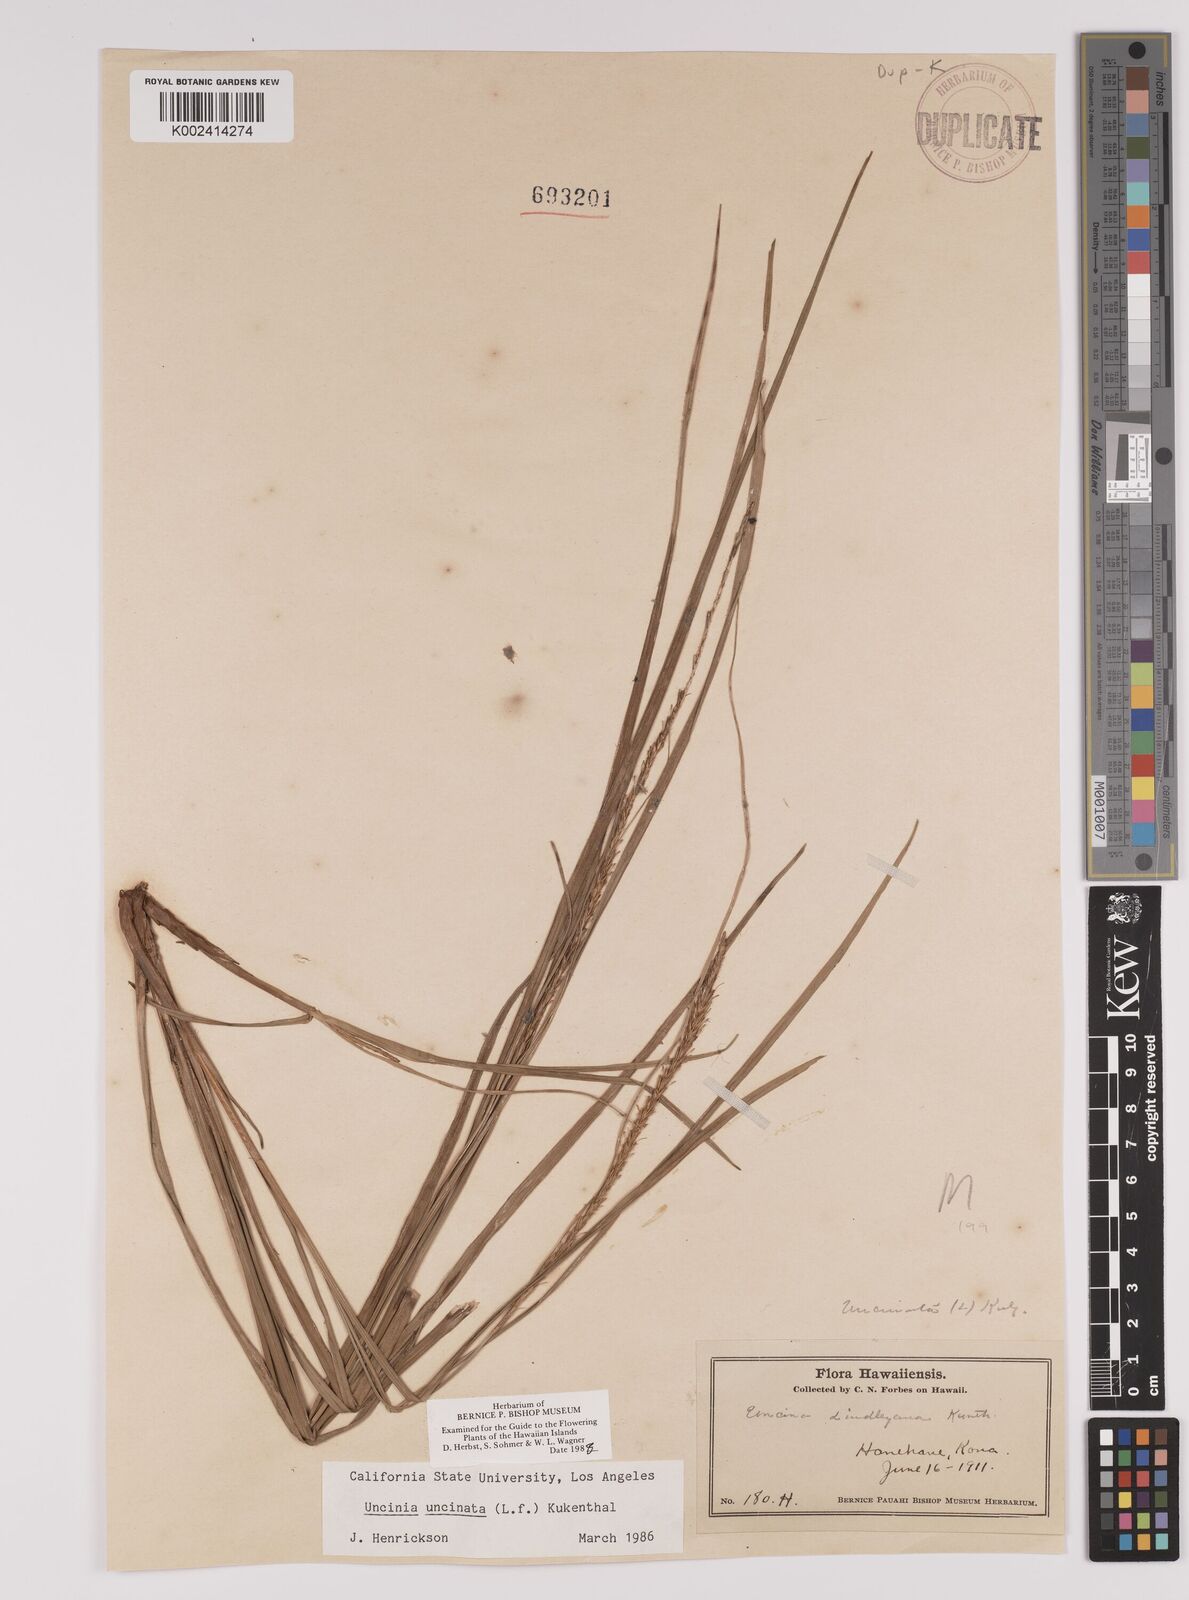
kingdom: Plantae
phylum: Tracheophyta
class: Liliopsida
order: Poales
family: Cyperaceae
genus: Carex
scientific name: Carex uncinata
